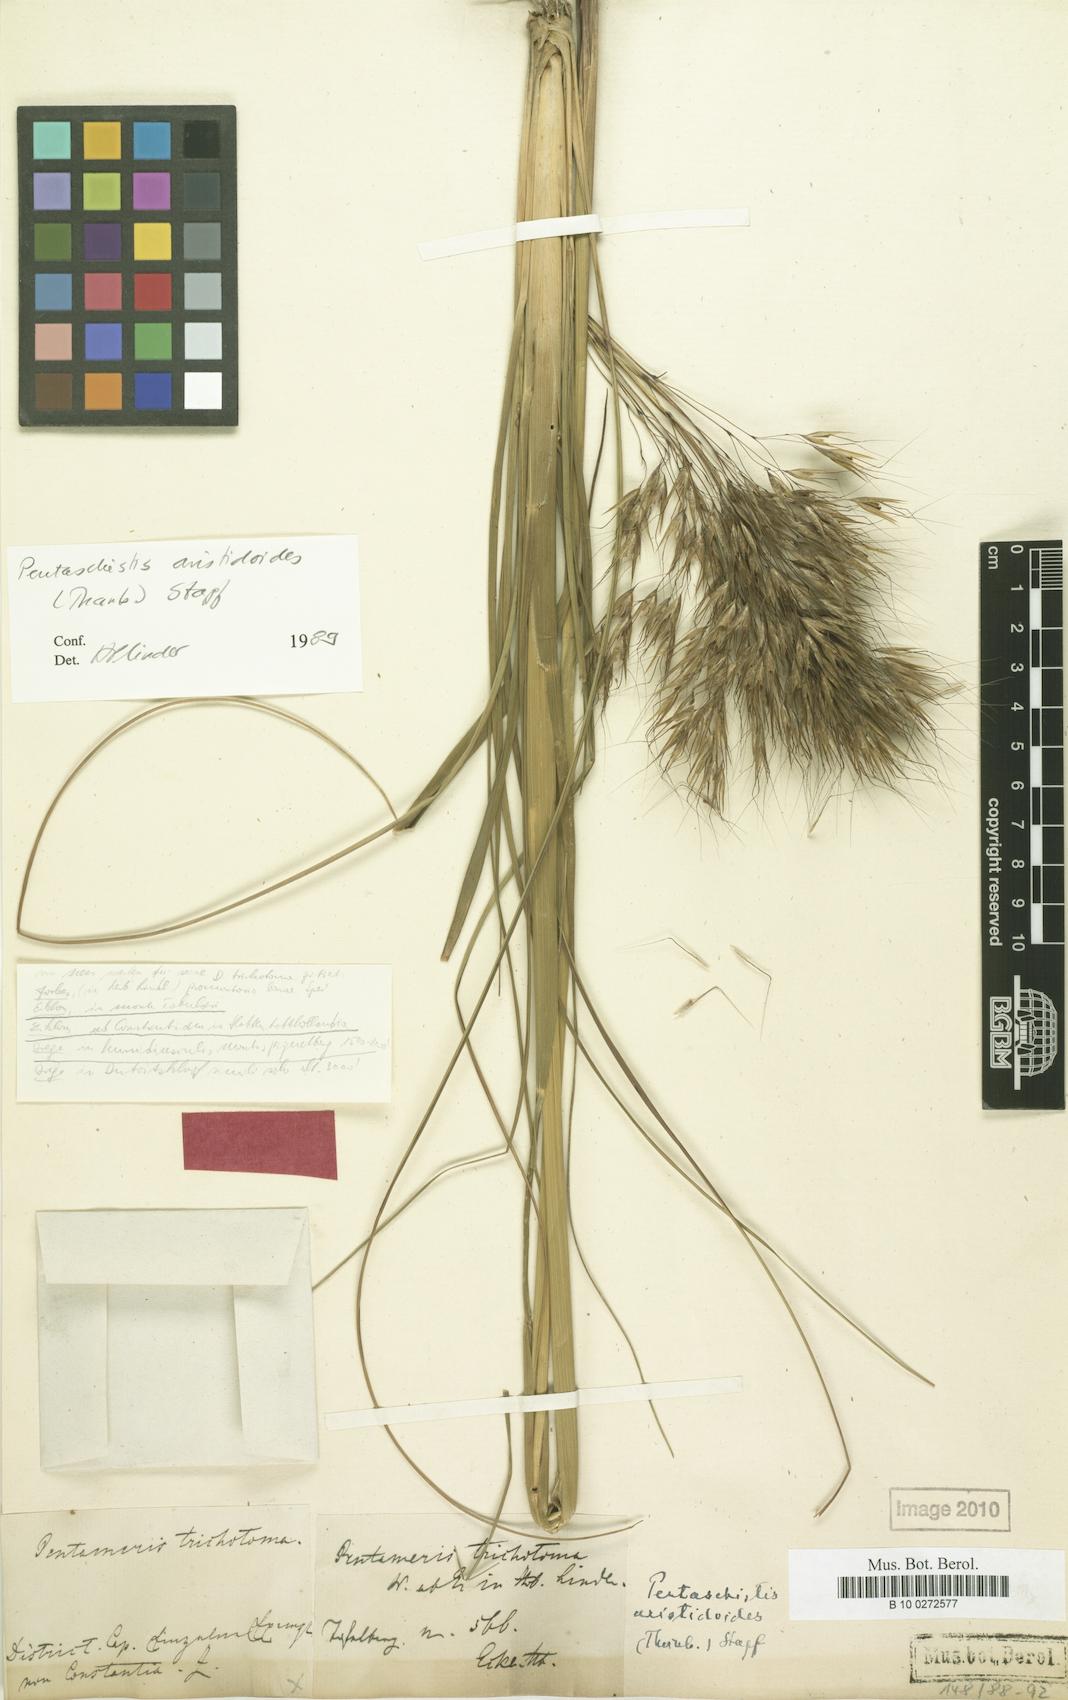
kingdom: Plantae
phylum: Tracheophyta
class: Liliopsida
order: Poales
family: Poaceae
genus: Pentameris
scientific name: Pentameris aristidoides
